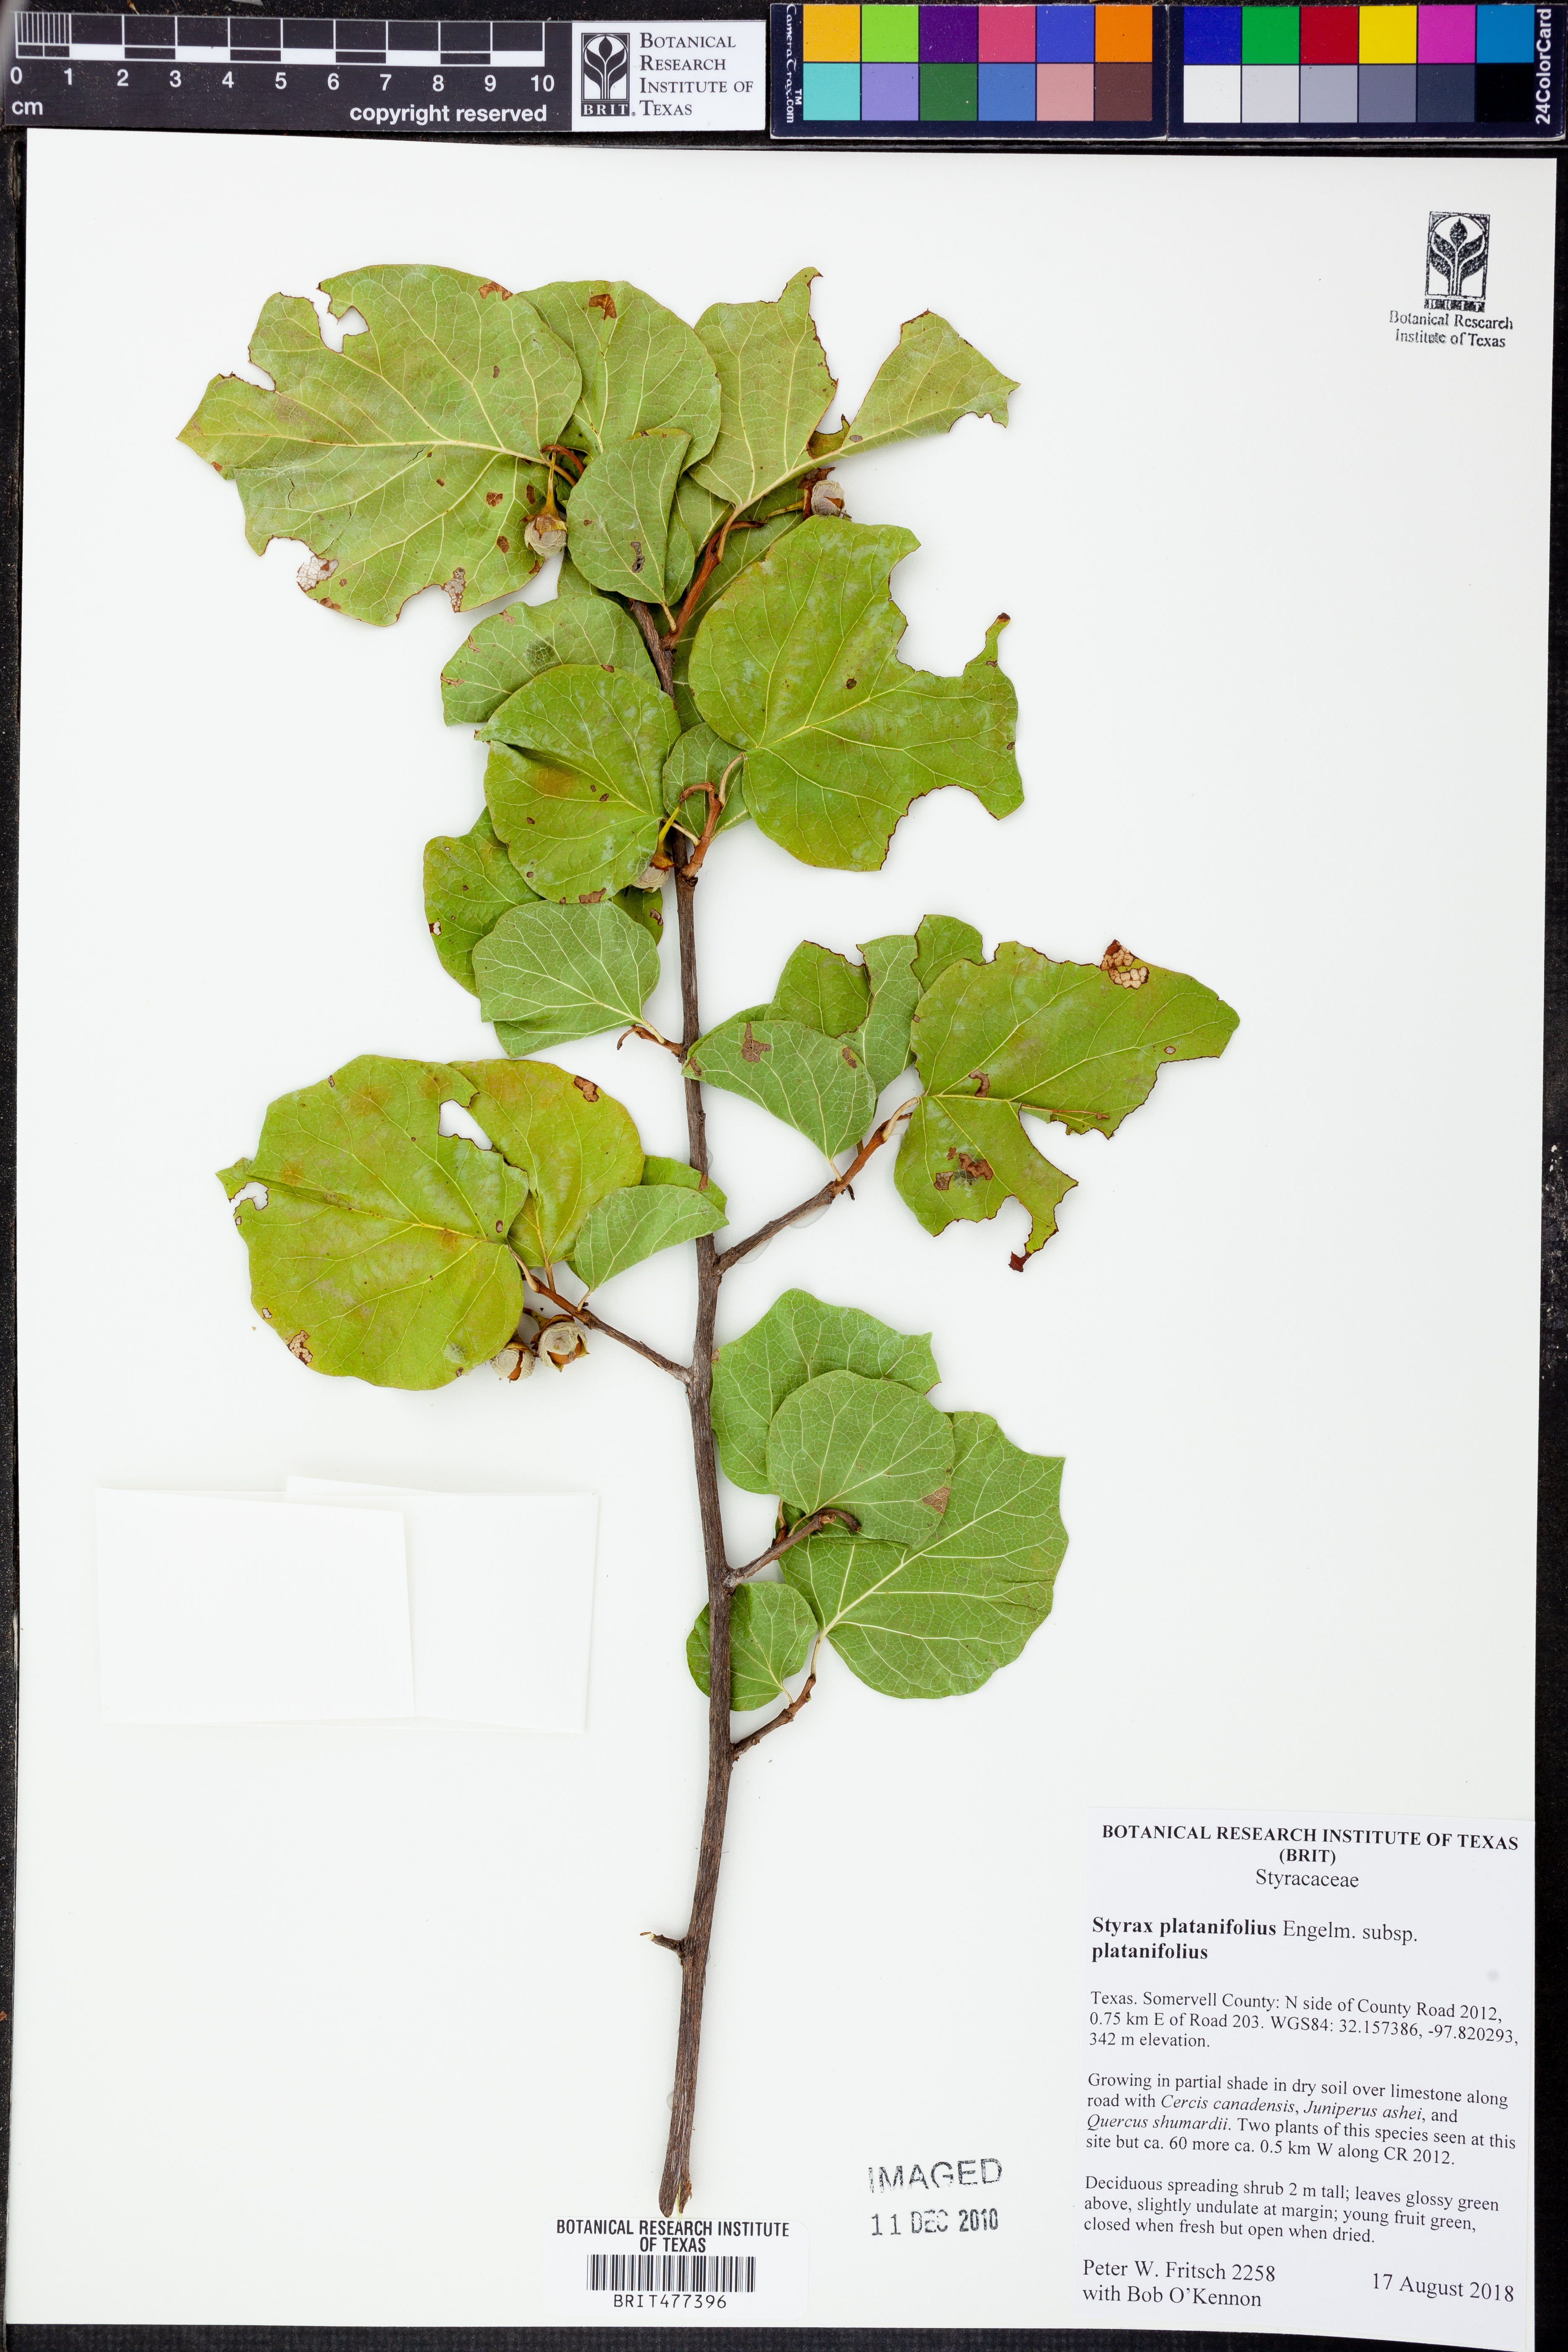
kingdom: Plantae
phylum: Tracheophyta
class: Magnoliopsida
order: Ericales
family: Styracaceae
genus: Styrax
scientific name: Styrax platanifolius
